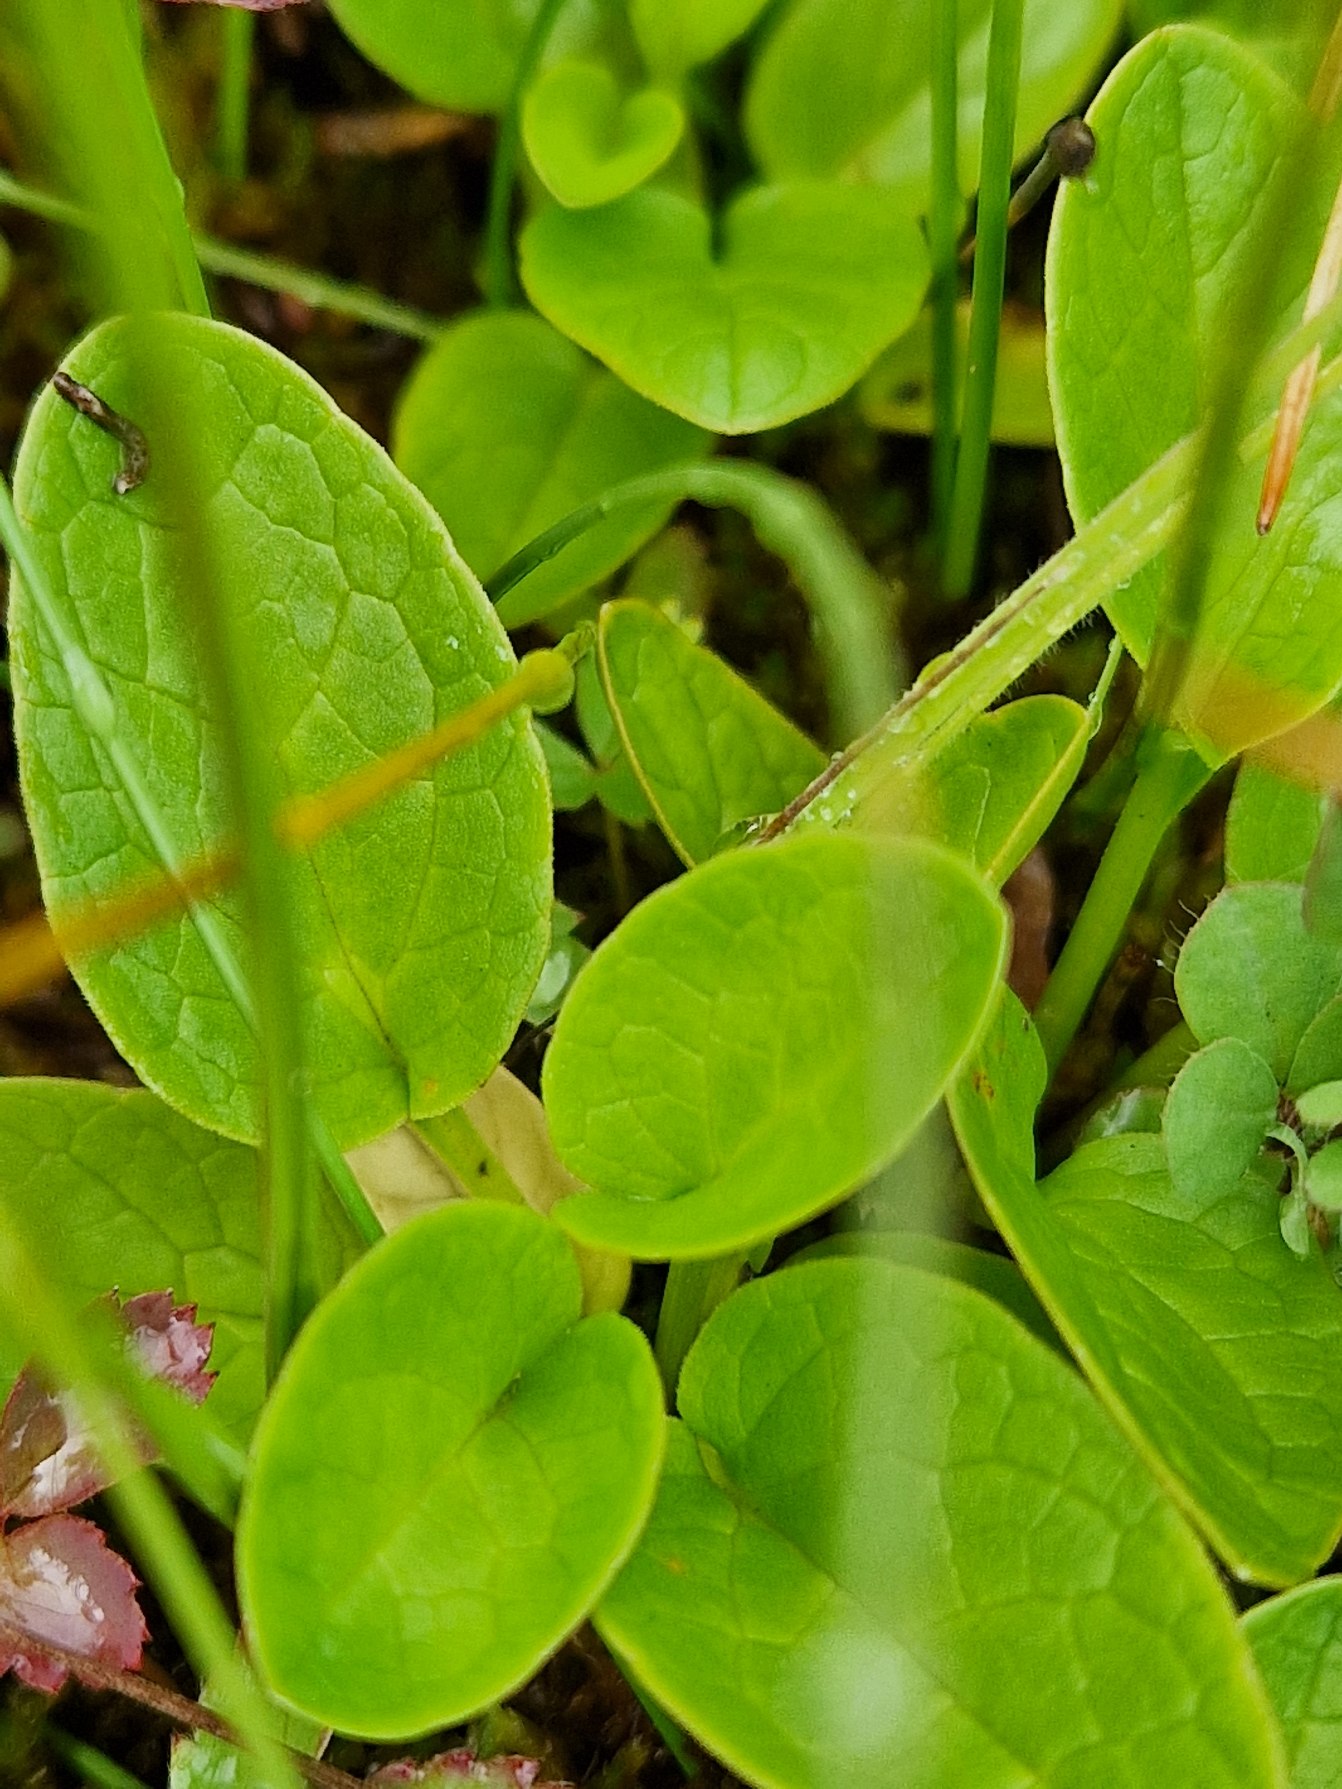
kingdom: Plantae
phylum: Tracheophyta
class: Magnoliopsida
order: Dipsacales
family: Caprifoliaceae
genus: Valeriana
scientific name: Valeriana dioica
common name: Tvebo baldrian
